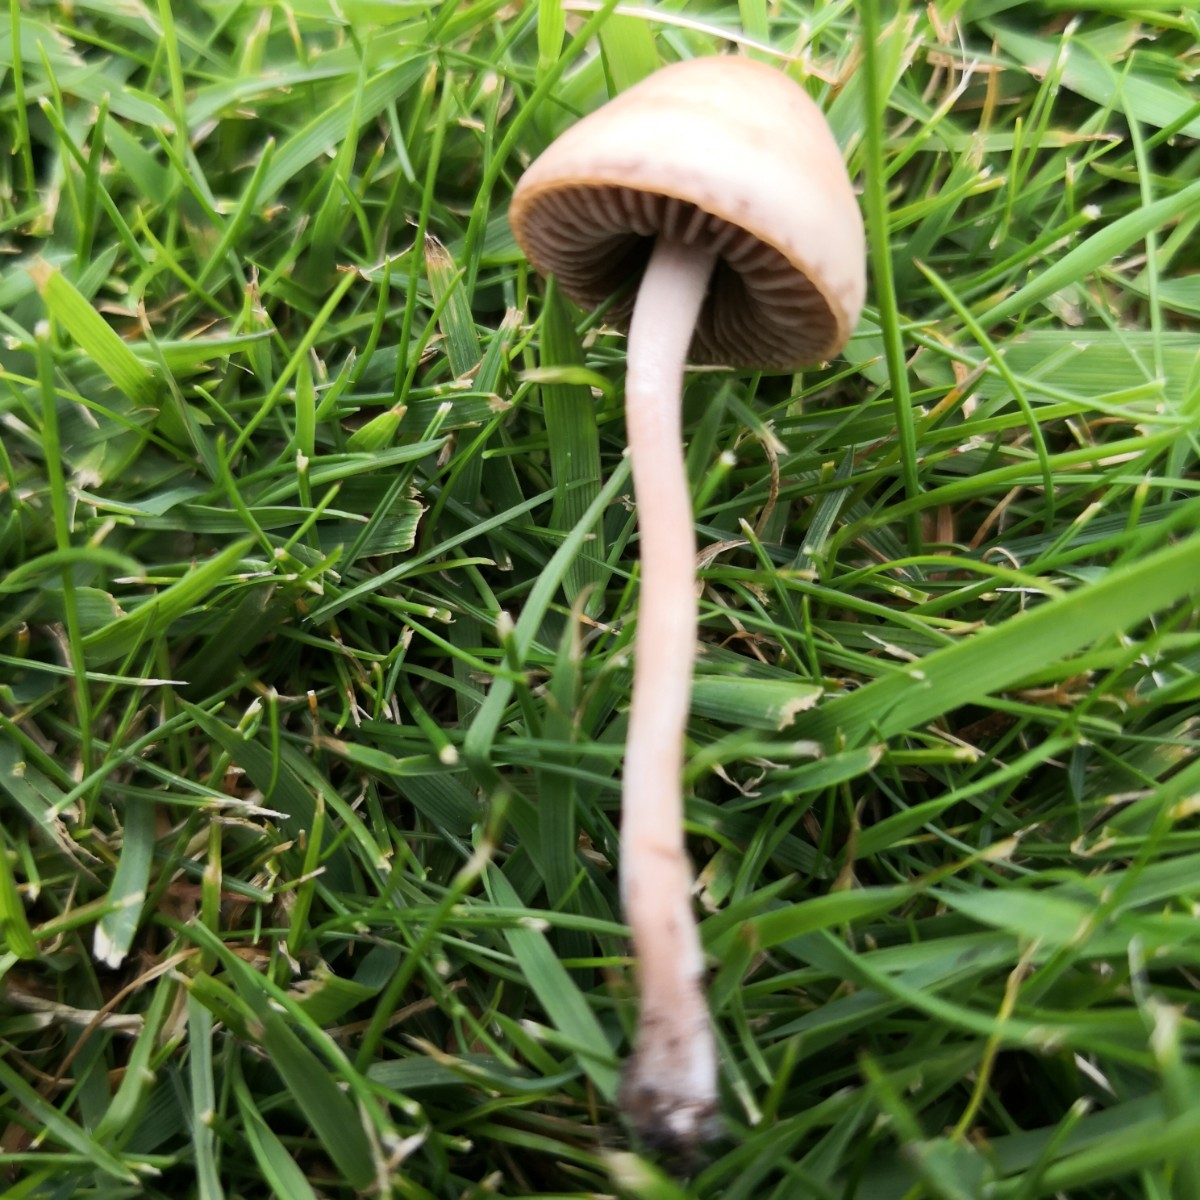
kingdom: Fungi
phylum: Basidiomycota
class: Agaricomycetes
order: Agaricales
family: Bolbitiaceae
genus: Panaeolina
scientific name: Panaeolina foenisecii
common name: høslætsvamp
